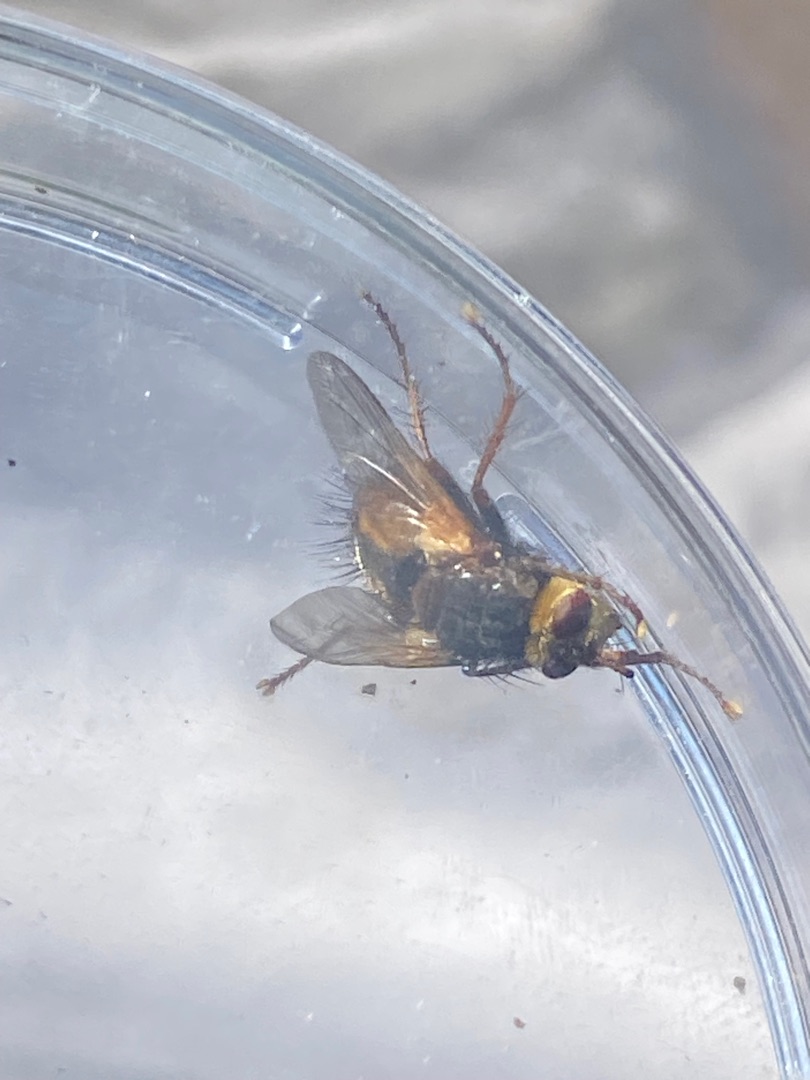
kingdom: Animalia
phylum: Arthropoda
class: Insecta
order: Diptera
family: Tachinidae
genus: Tachina
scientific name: Tachina fera
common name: Mellemfluen oskar
